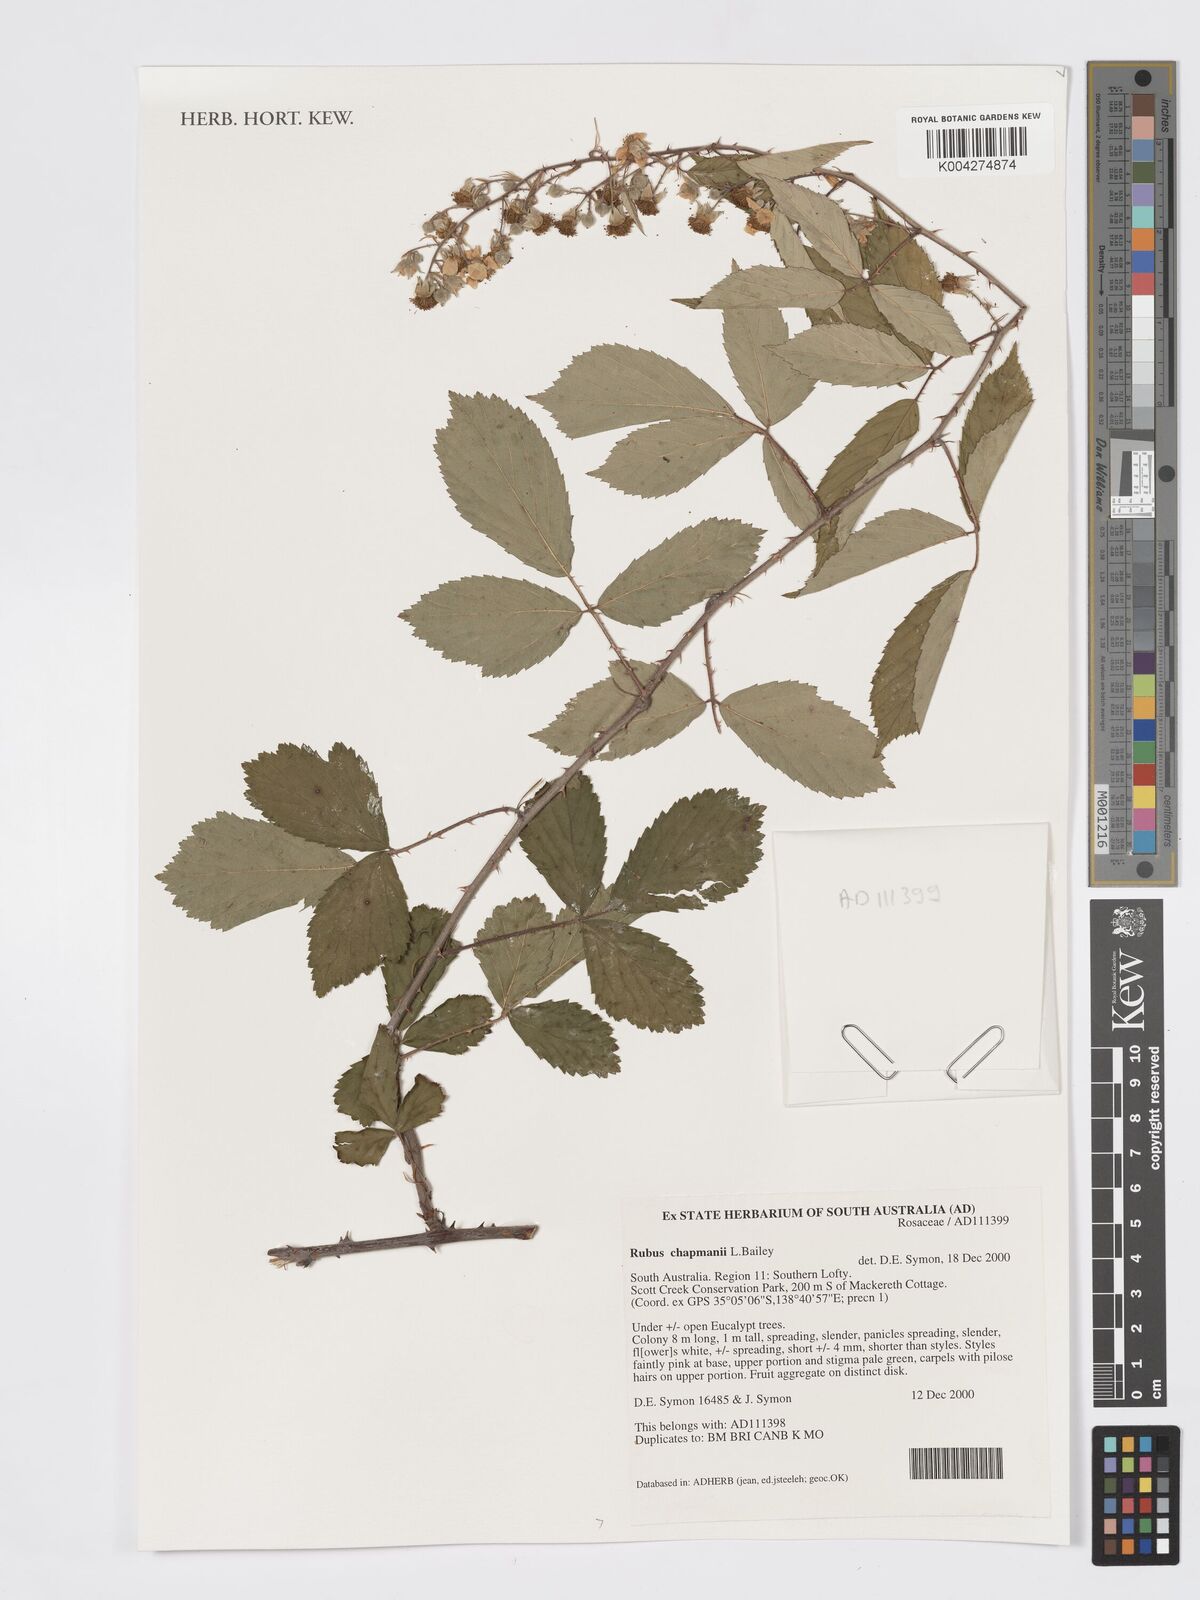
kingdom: Plantae
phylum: Tracheophyta
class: Magnoliopsida
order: Rosales
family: Rosaceae
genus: Rubus
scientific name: Rubus cuneifolius
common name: American bramble
